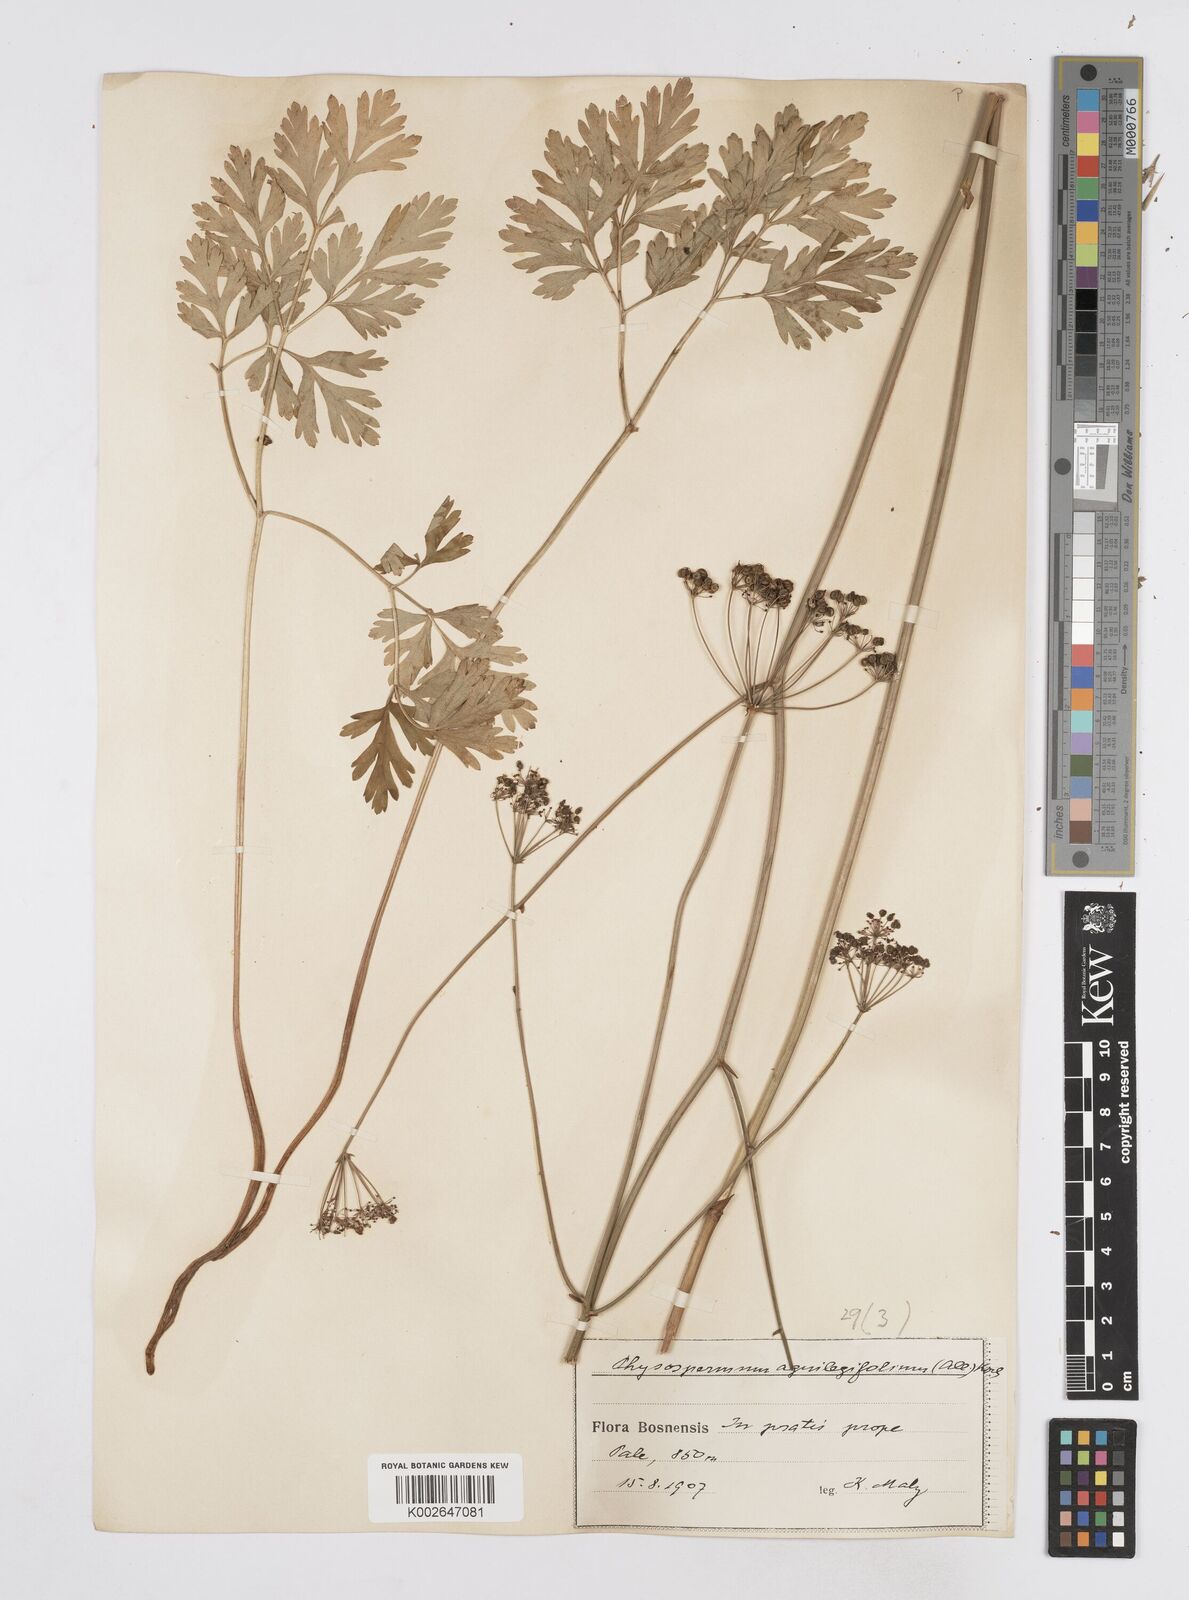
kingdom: Plantae
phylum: Tracheophyta
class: Magnoliopsida
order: Apiales
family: Apiaceae
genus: Physospermum
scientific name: Physospermum cornubiense
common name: Bladderseed
